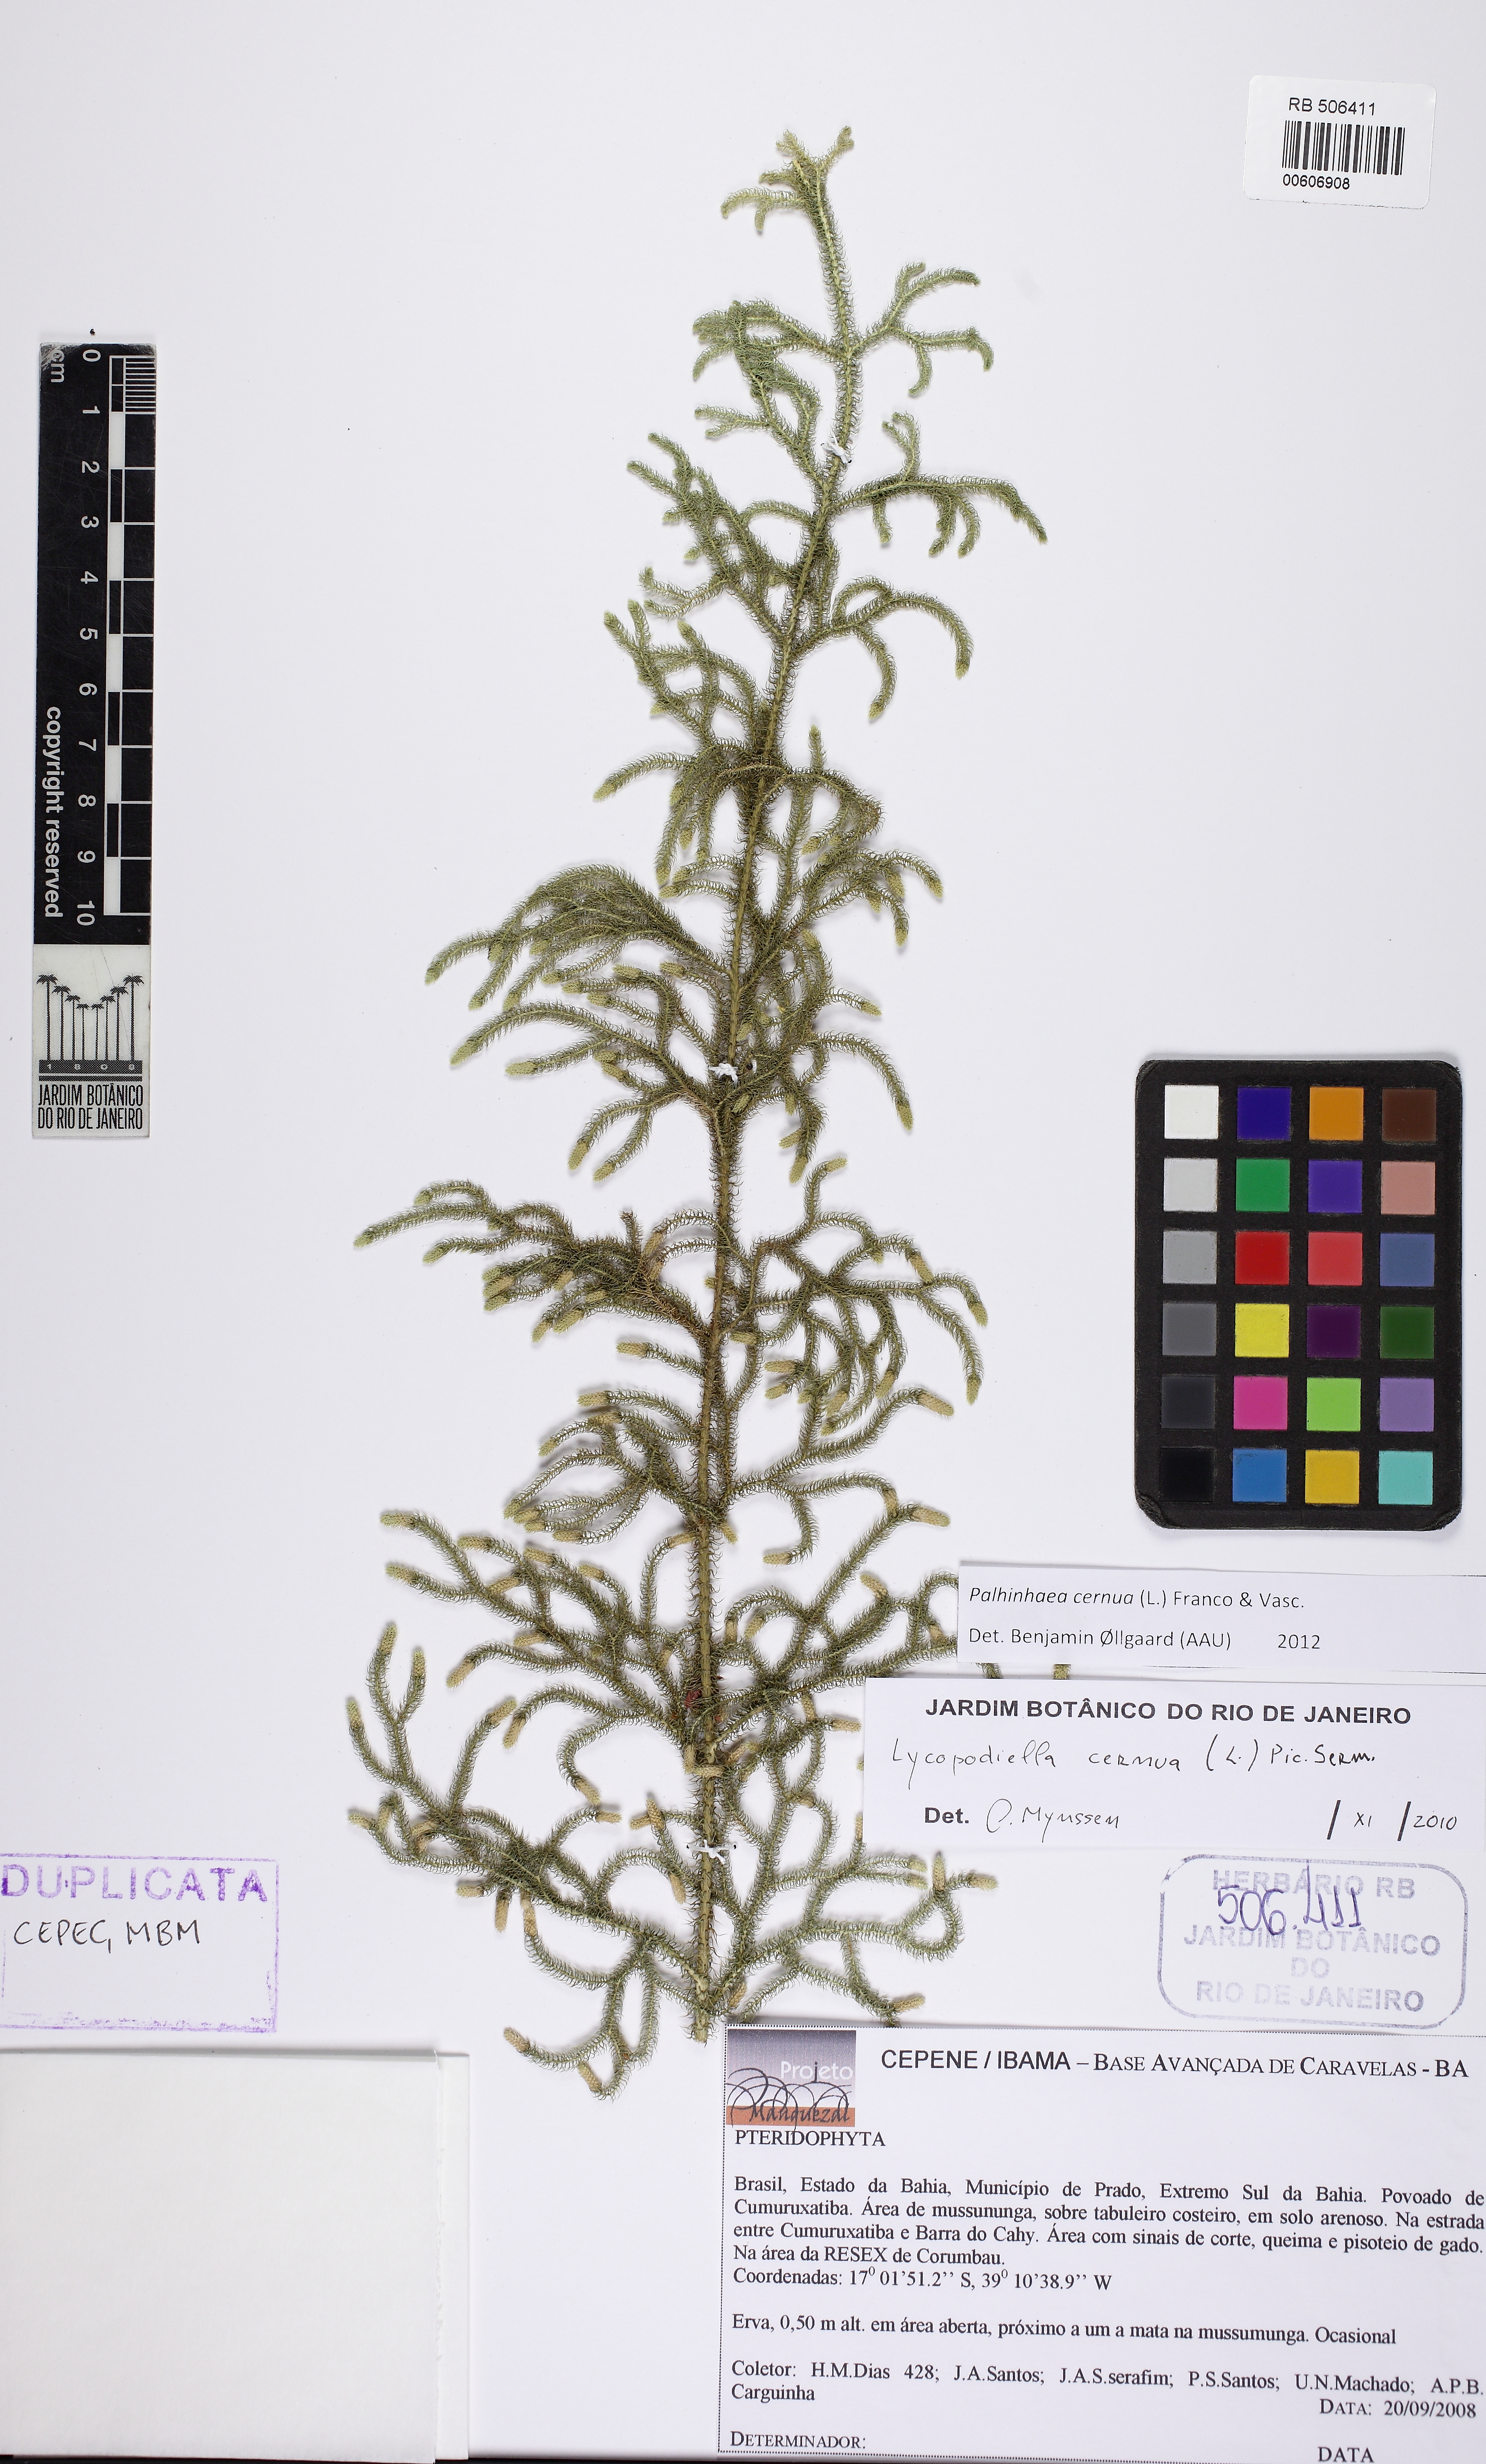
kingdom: Plantae
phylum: Tracheophyta
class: Lycopodiopsida
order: Lycopodiales
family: Lycopodiaceae
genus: Palhinhaea
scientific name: Palhinhaea cernua
